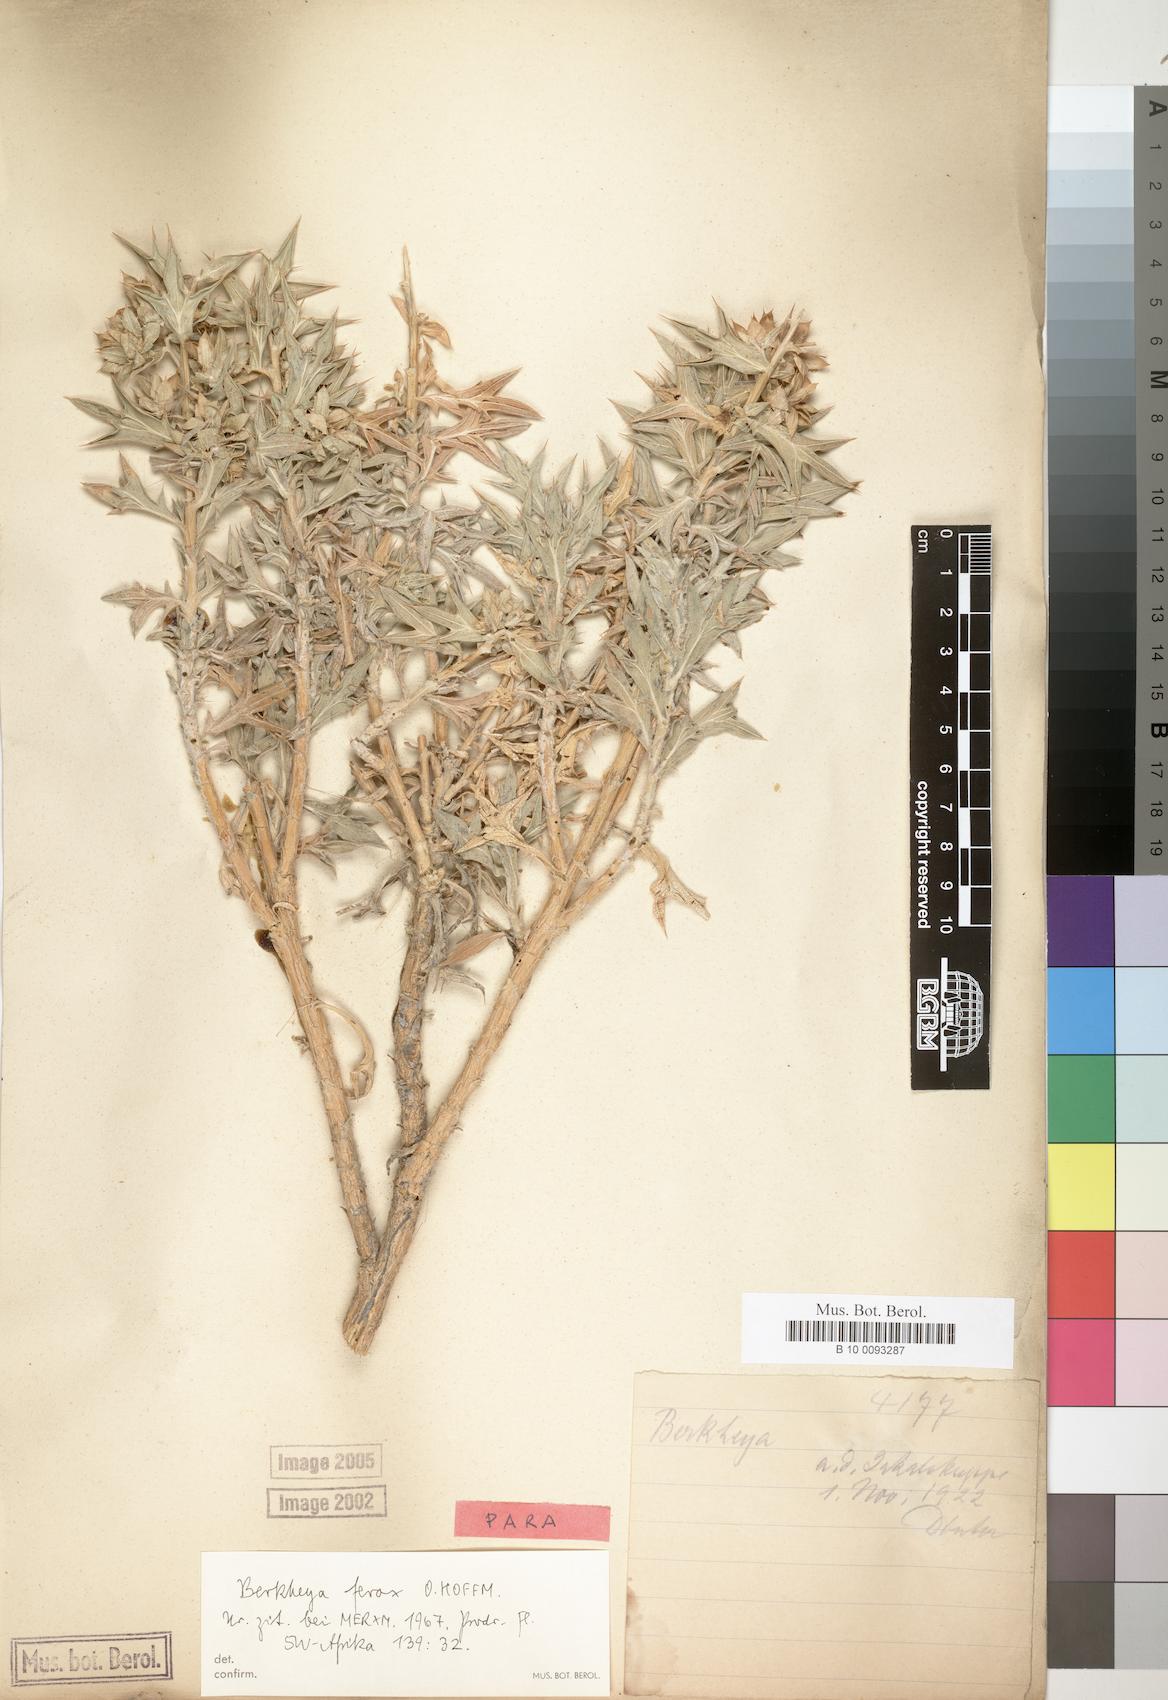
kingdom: Plantae
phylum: Tracheophyta
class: Magnoliopsida
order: Asterales
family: Asteraceae
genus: Berkheya
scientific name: Berkheya ferox
